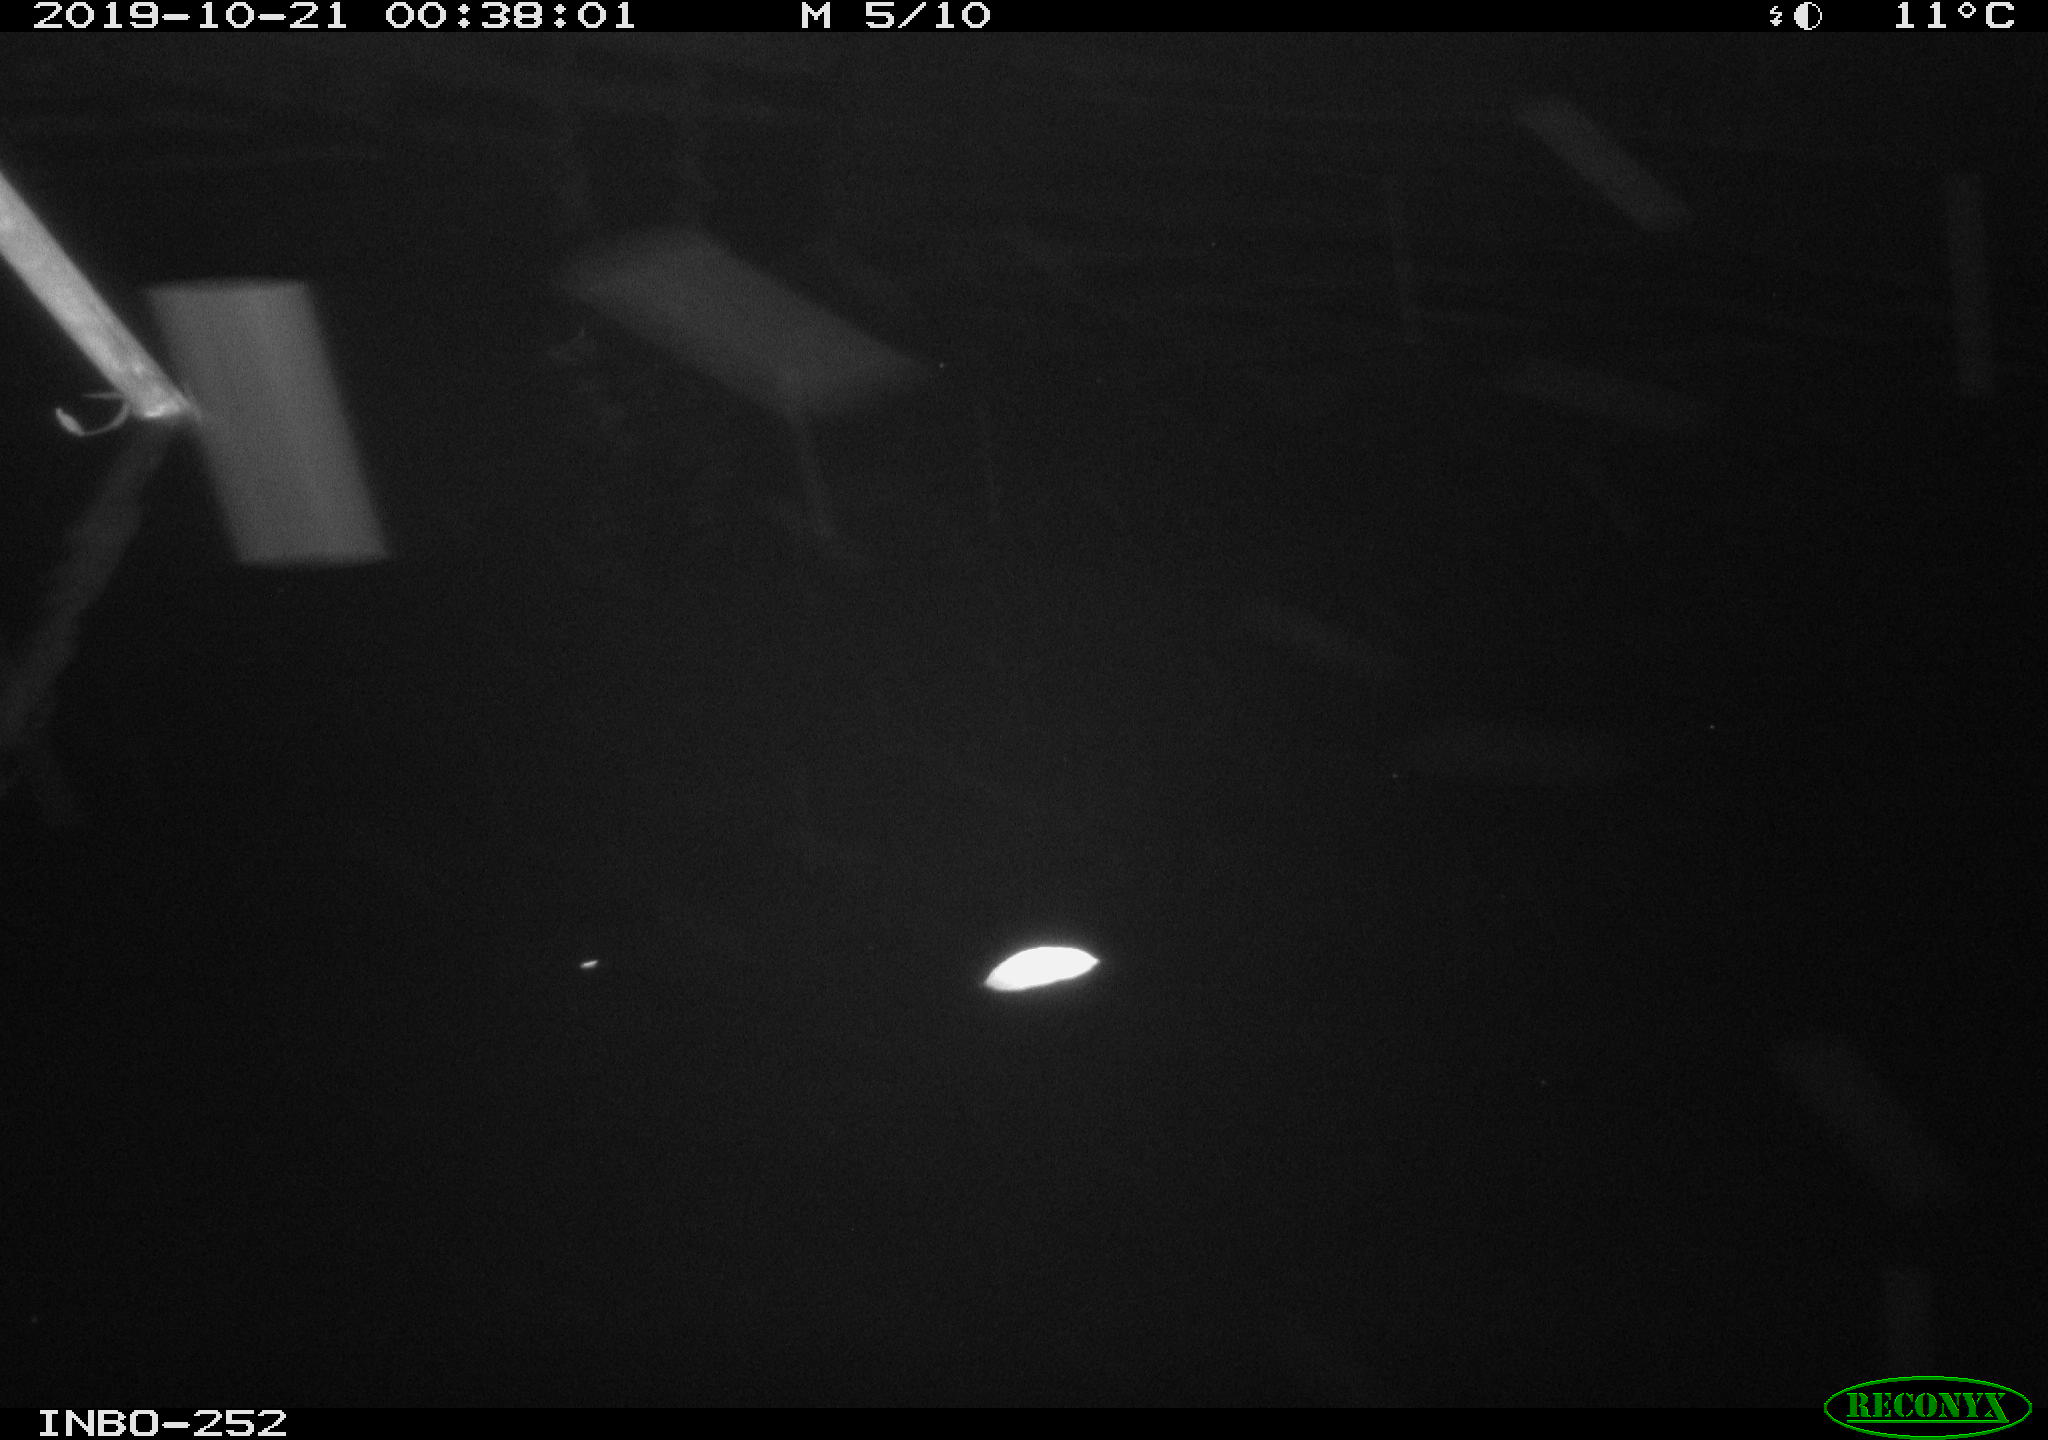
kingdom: Animalia
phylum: Chordata
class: Aves
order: Anseriformes
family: Anatidae
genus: Anas
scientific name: Anas platyrhynchos
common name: Mallard
